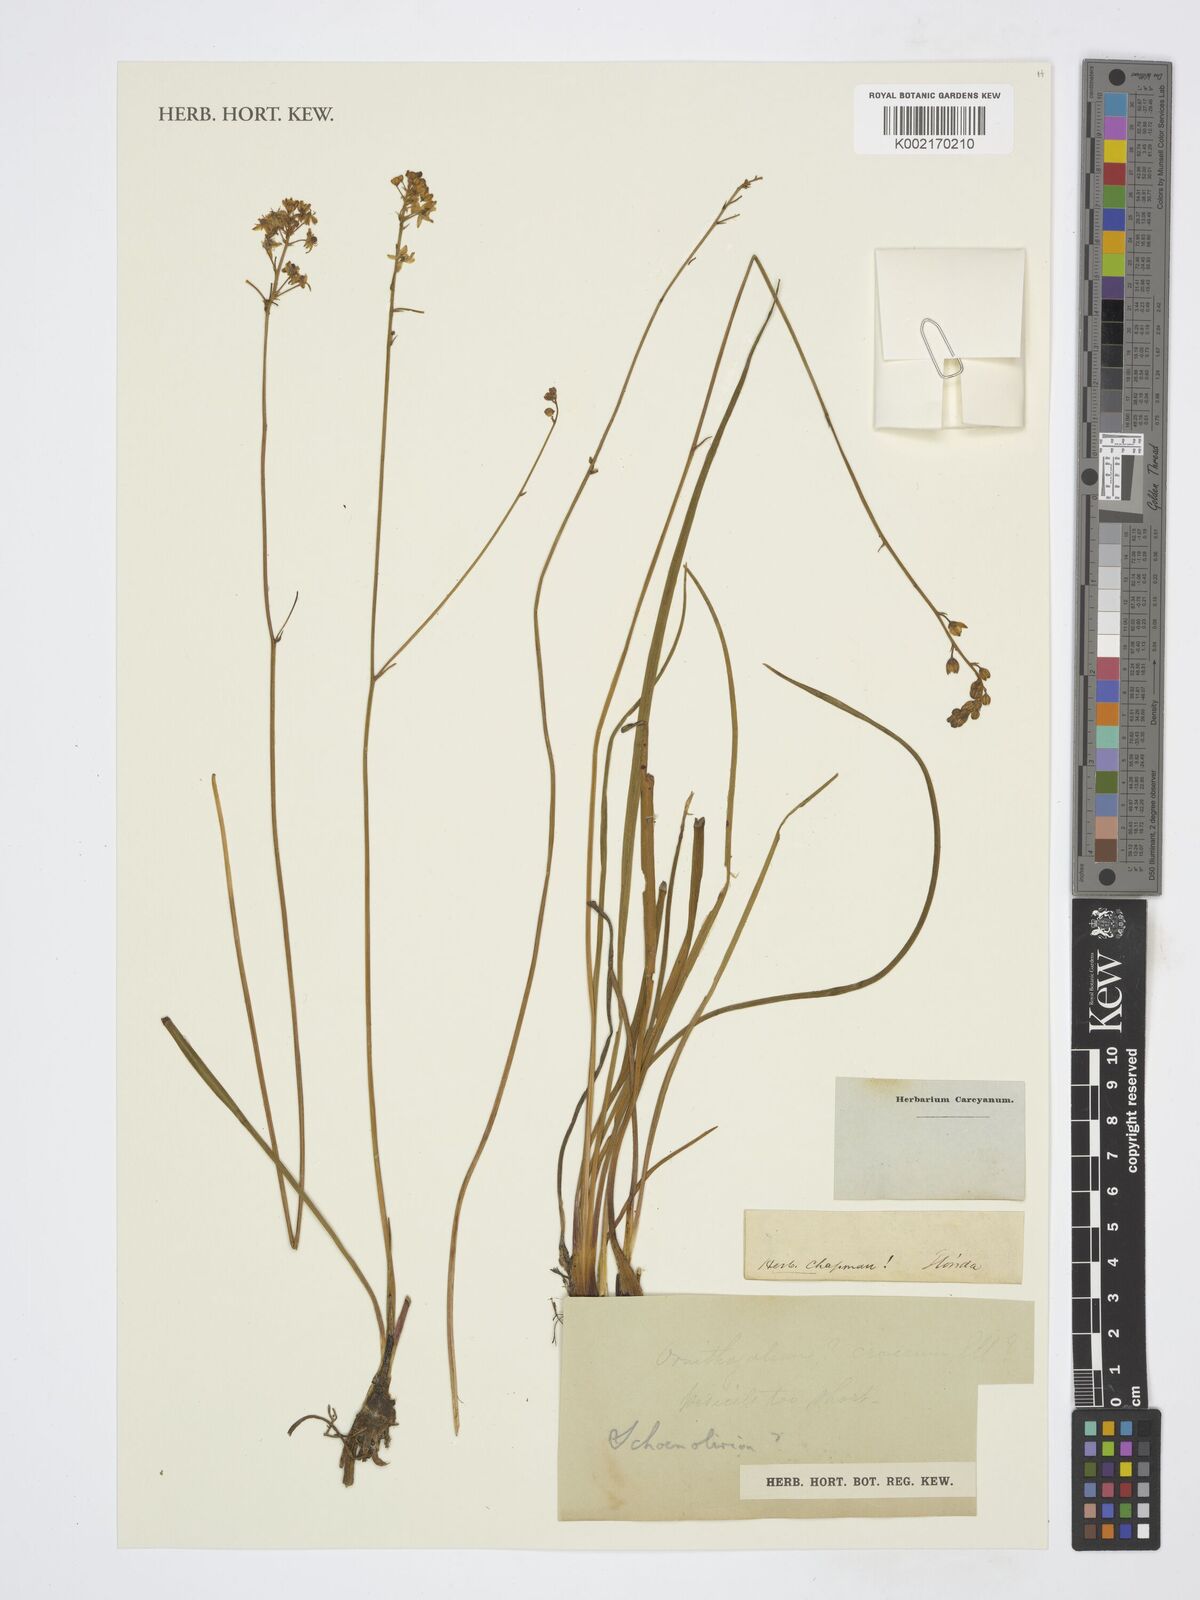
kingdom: Plantae
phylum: Tracheophyta
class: Liliopsida
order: Asparagales
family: Asparagaceae
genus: Schoenolirion
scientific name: Schoenolirion
